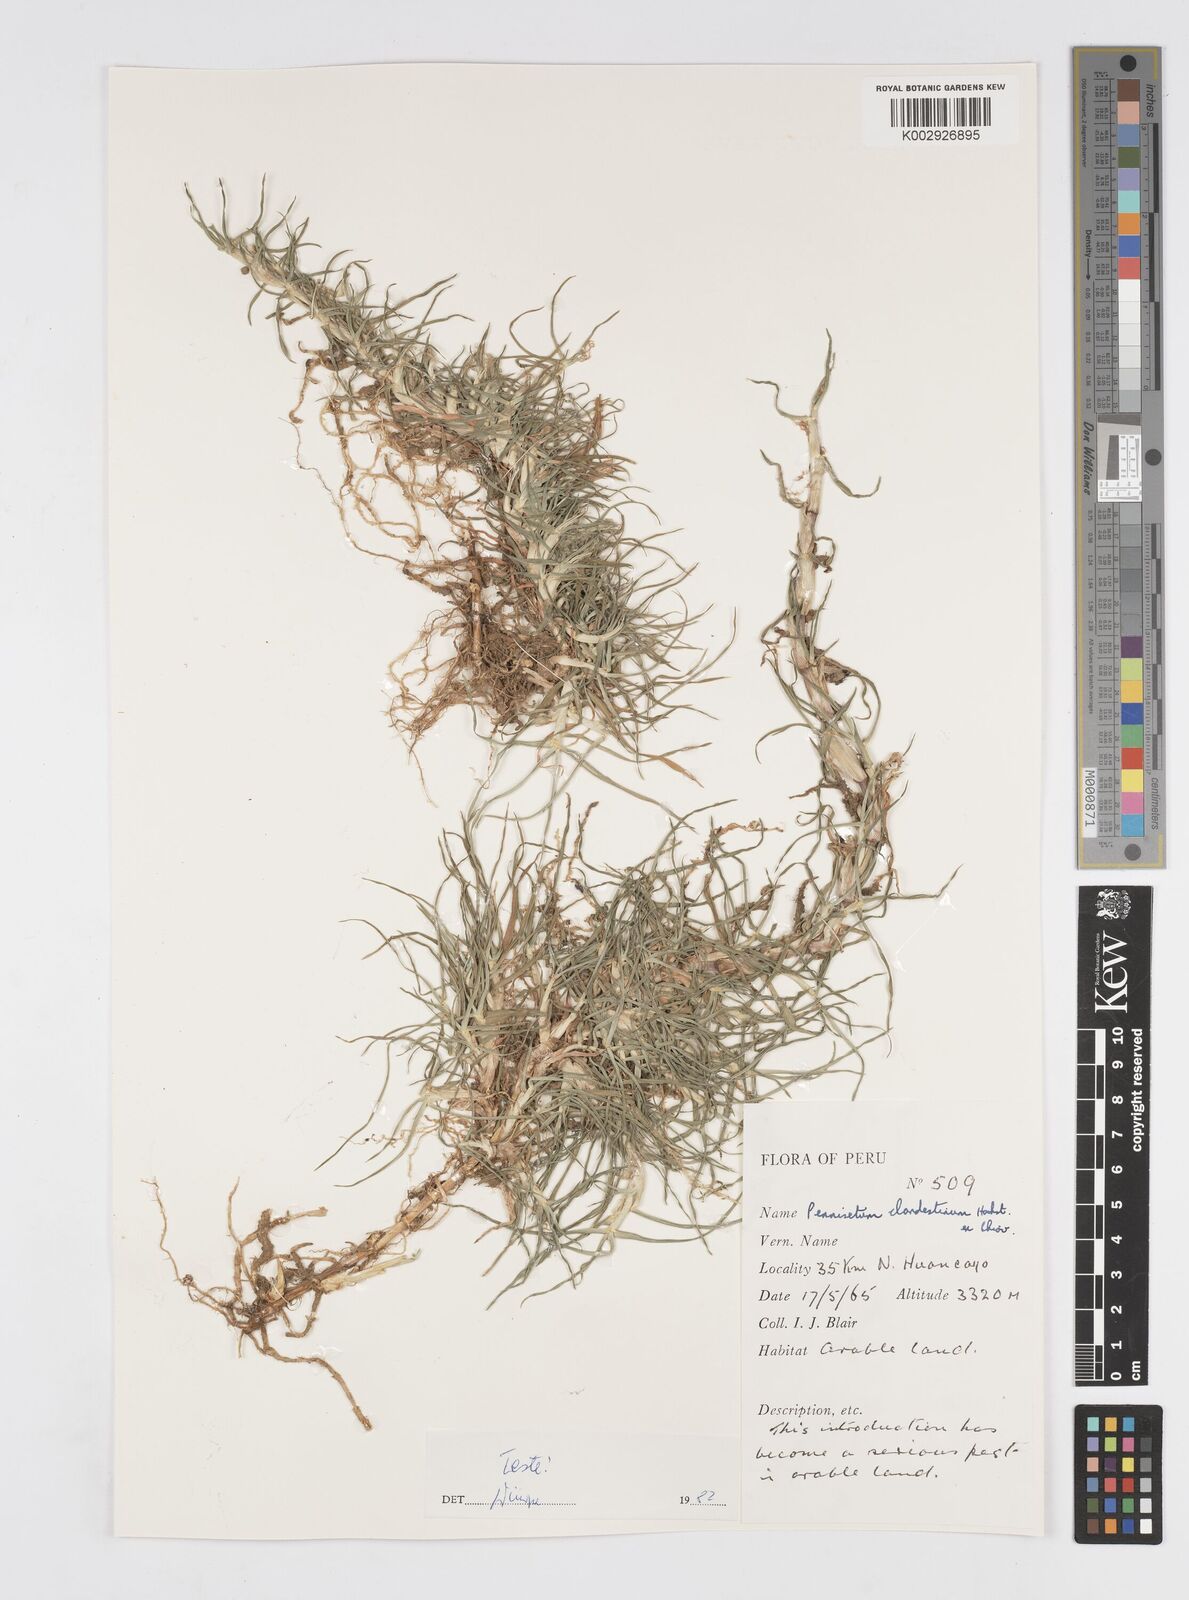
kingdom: Plantae
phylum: Tracheophyta
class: Liliopsida
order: Poales
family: Poaceae
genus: Cenchrus
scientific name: Cenchrus clandestinus
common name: Kikuyugrass
